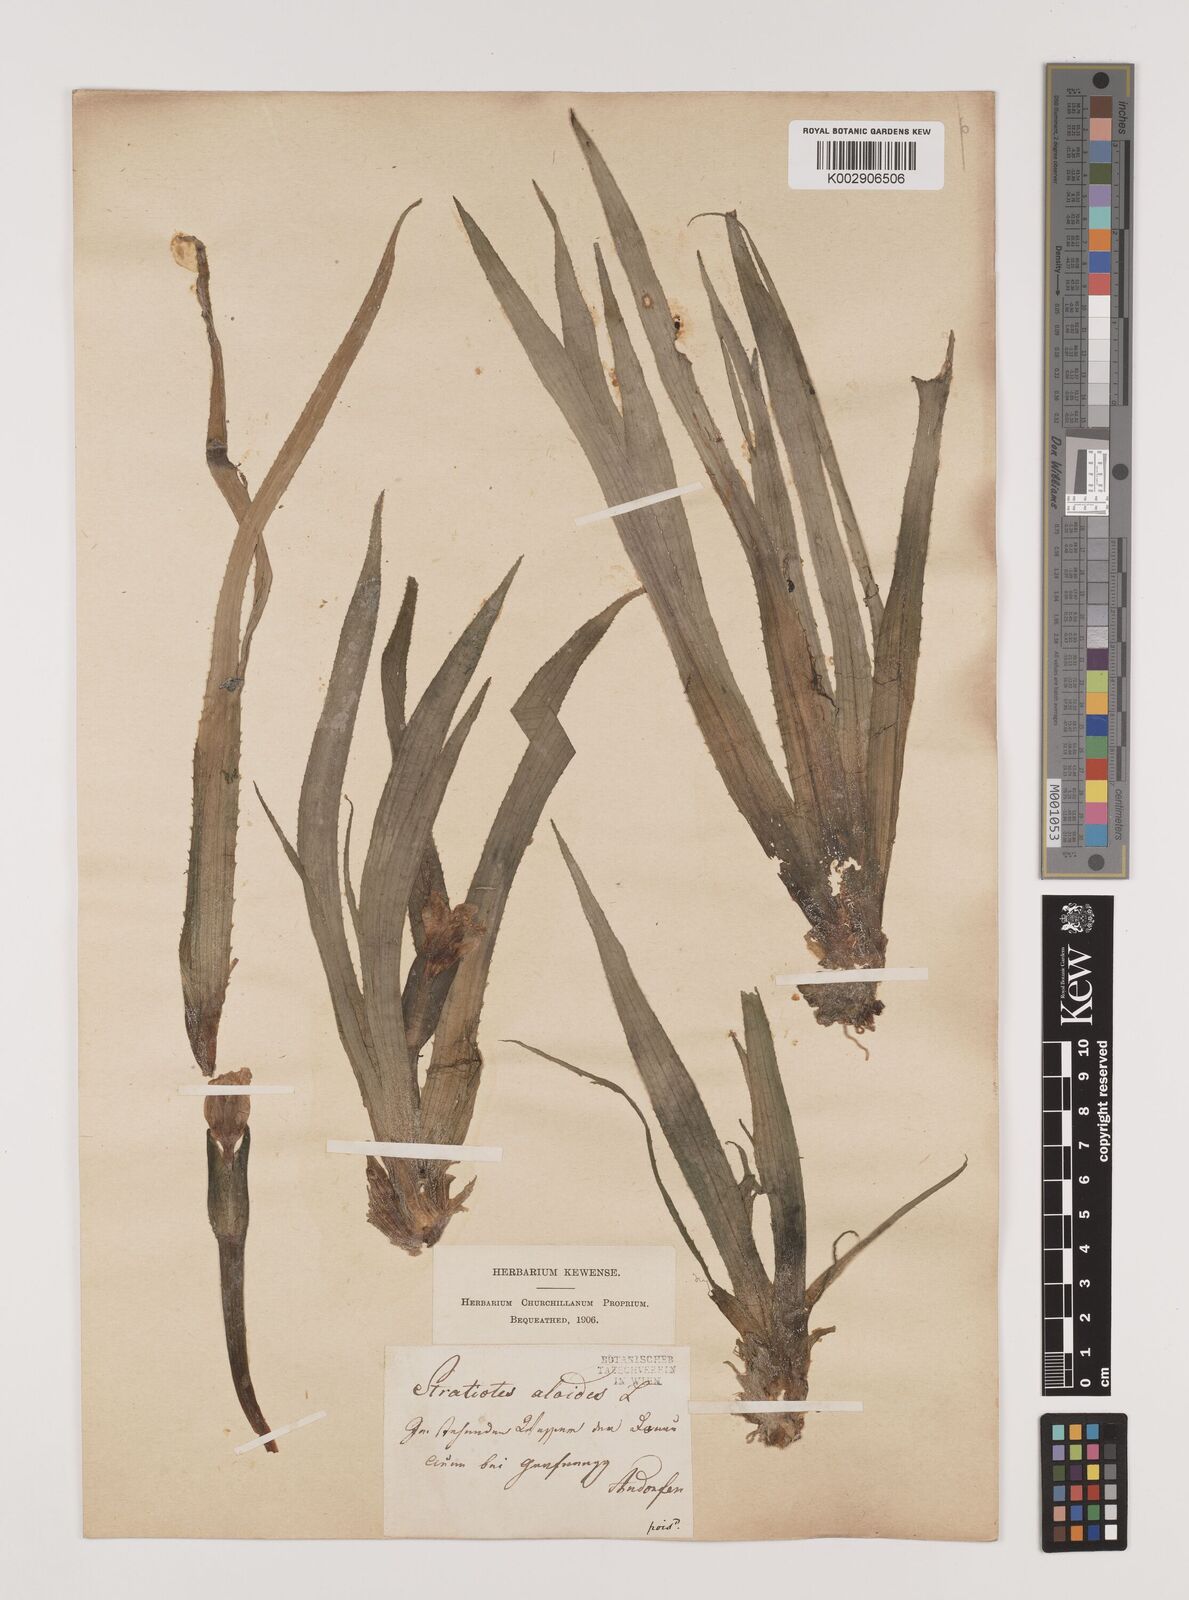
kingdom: Plantae
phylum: Tracheophyta
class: Liliopsida
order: Alismatales
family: Hydrocharitaceae
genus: Stratiotes
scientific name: Stratiotes aloides
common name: Water-soldier
